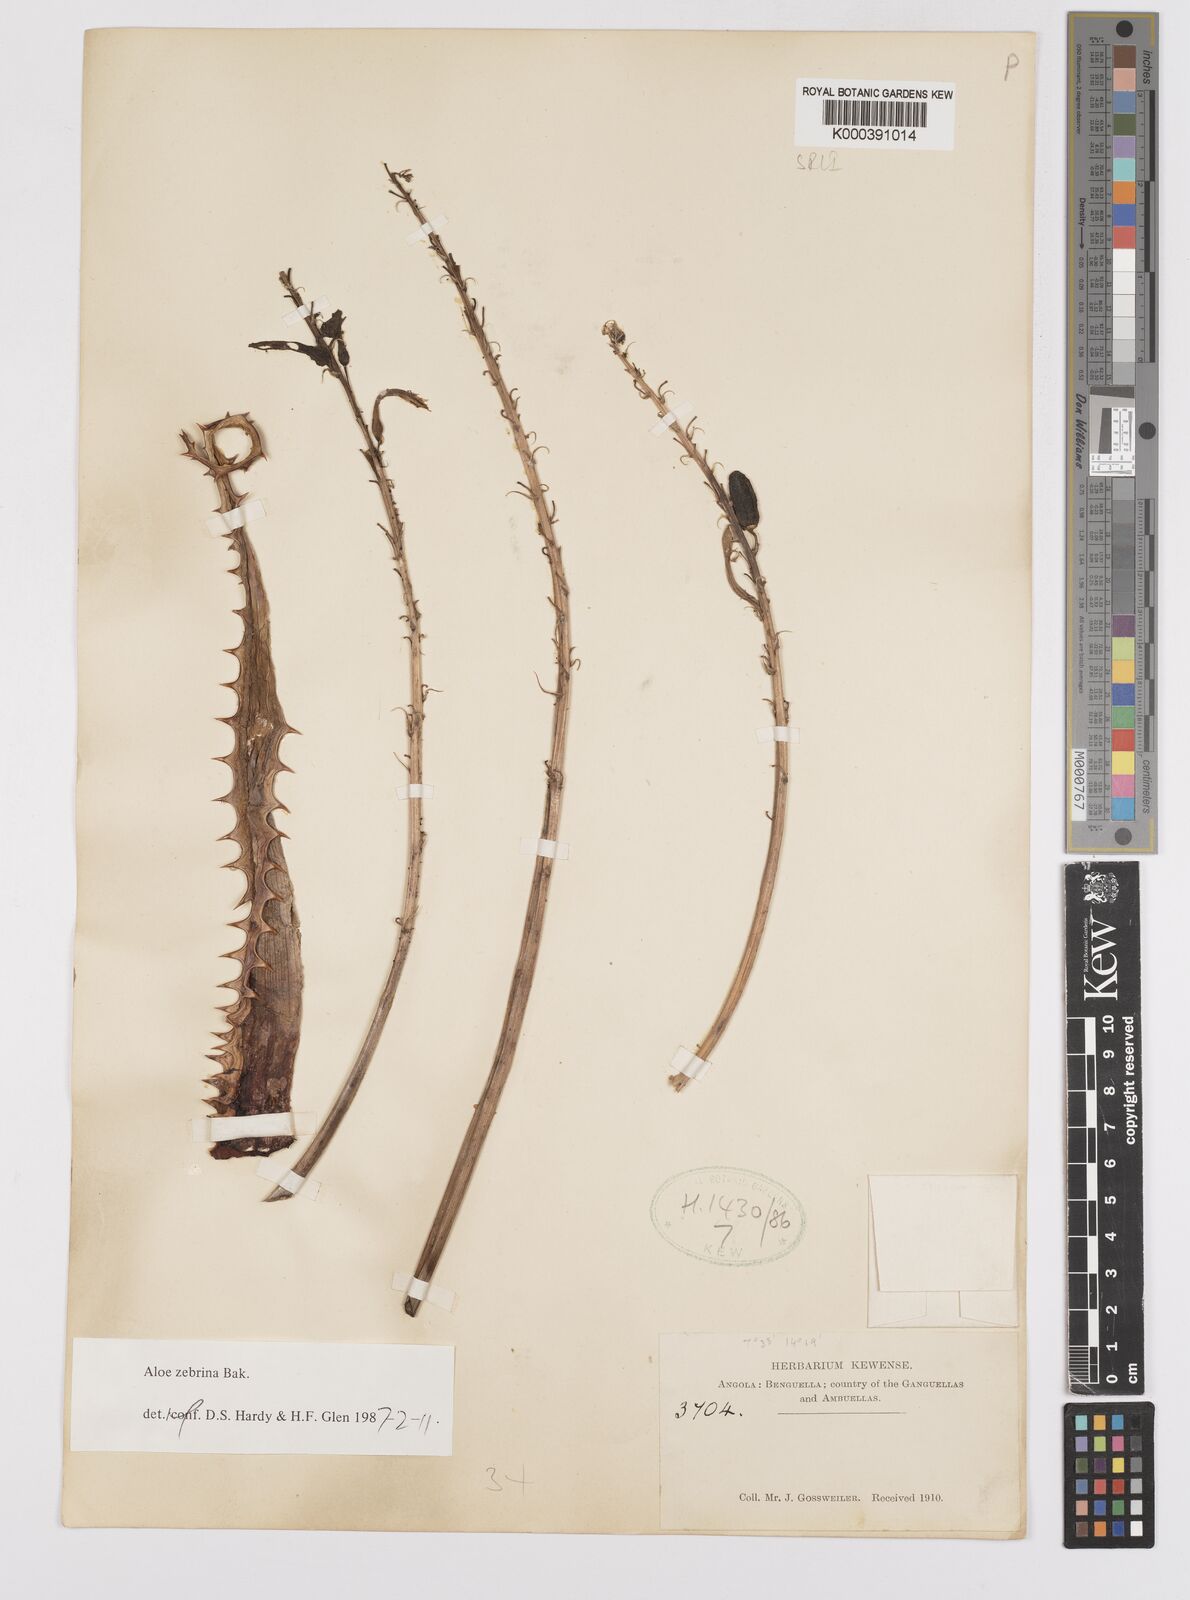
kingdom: Plantae
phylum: Tracheophyta
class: Liliopsida
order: Asparagales
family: Asphodelaceae
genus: Aloe
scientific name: Aloe zebrina
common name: Zebra-leaf aloe
